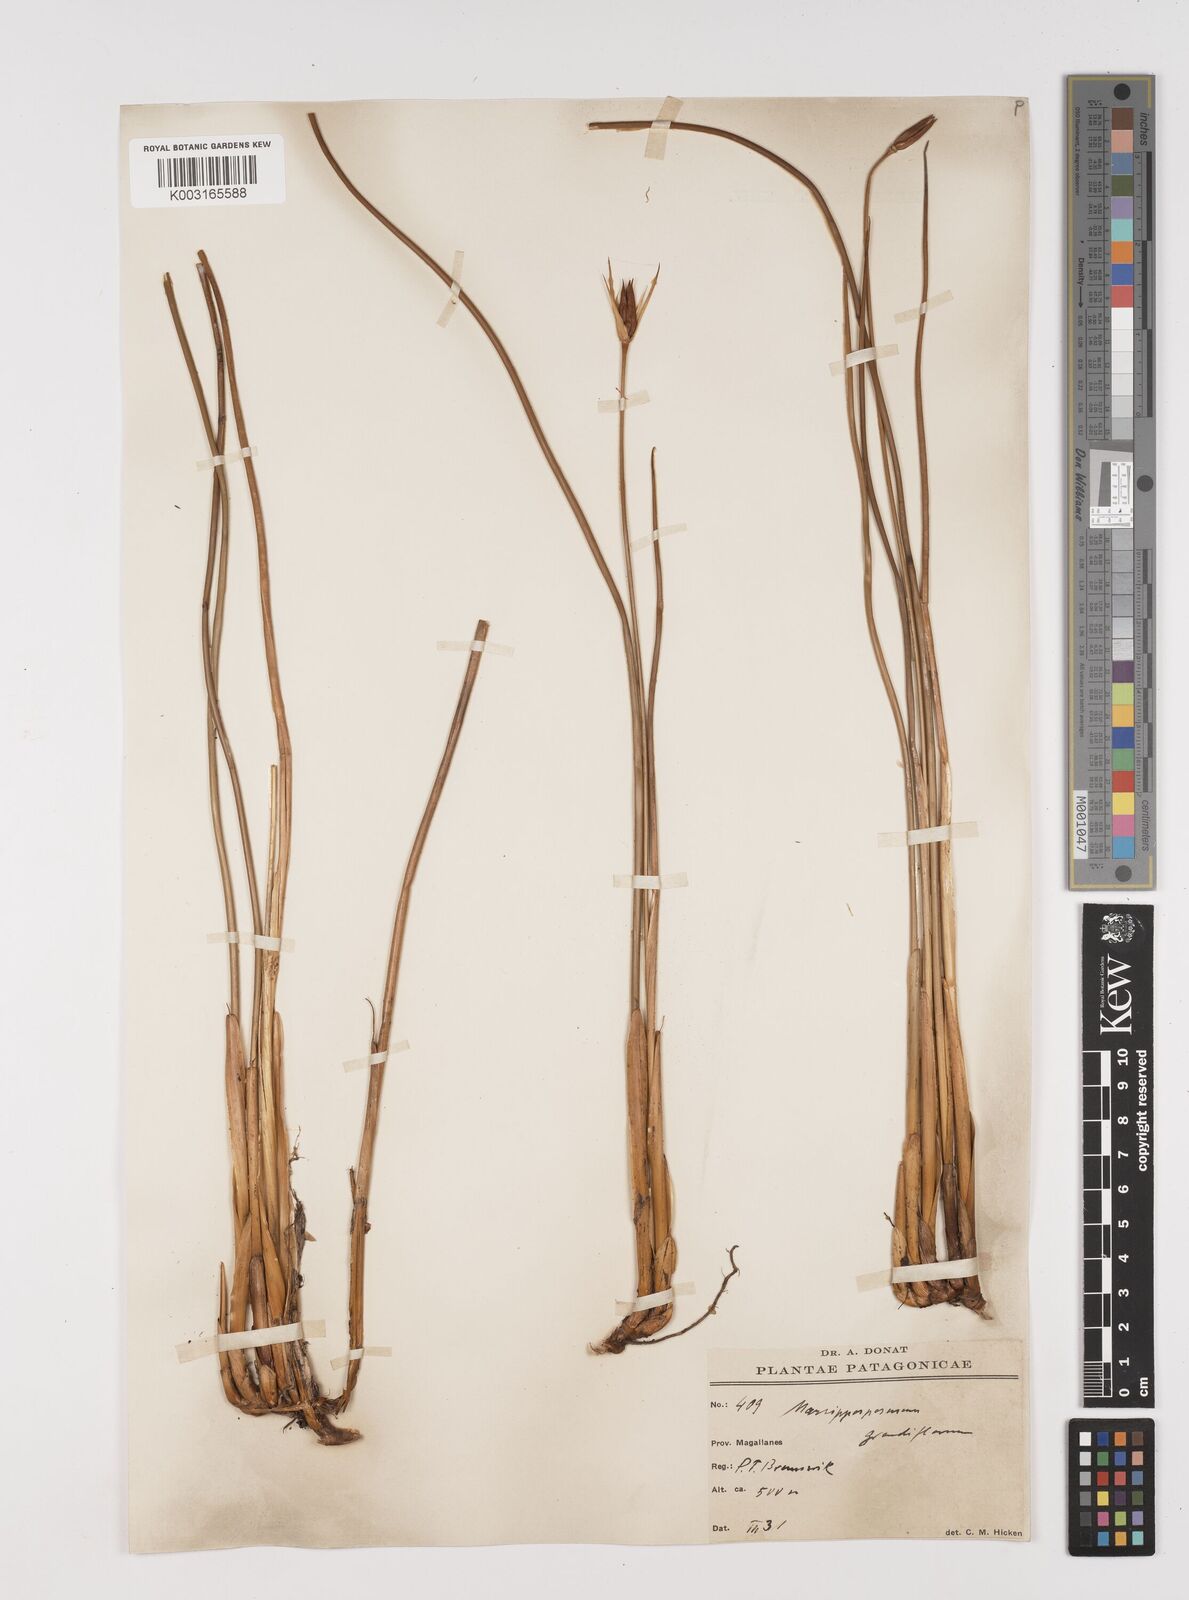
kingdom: Plantae
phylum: Tracheophyta
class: Liliopsida
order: Poales
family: Juncaceae
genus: Marsippospermum
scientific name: Marsippospermum grandiflorum
